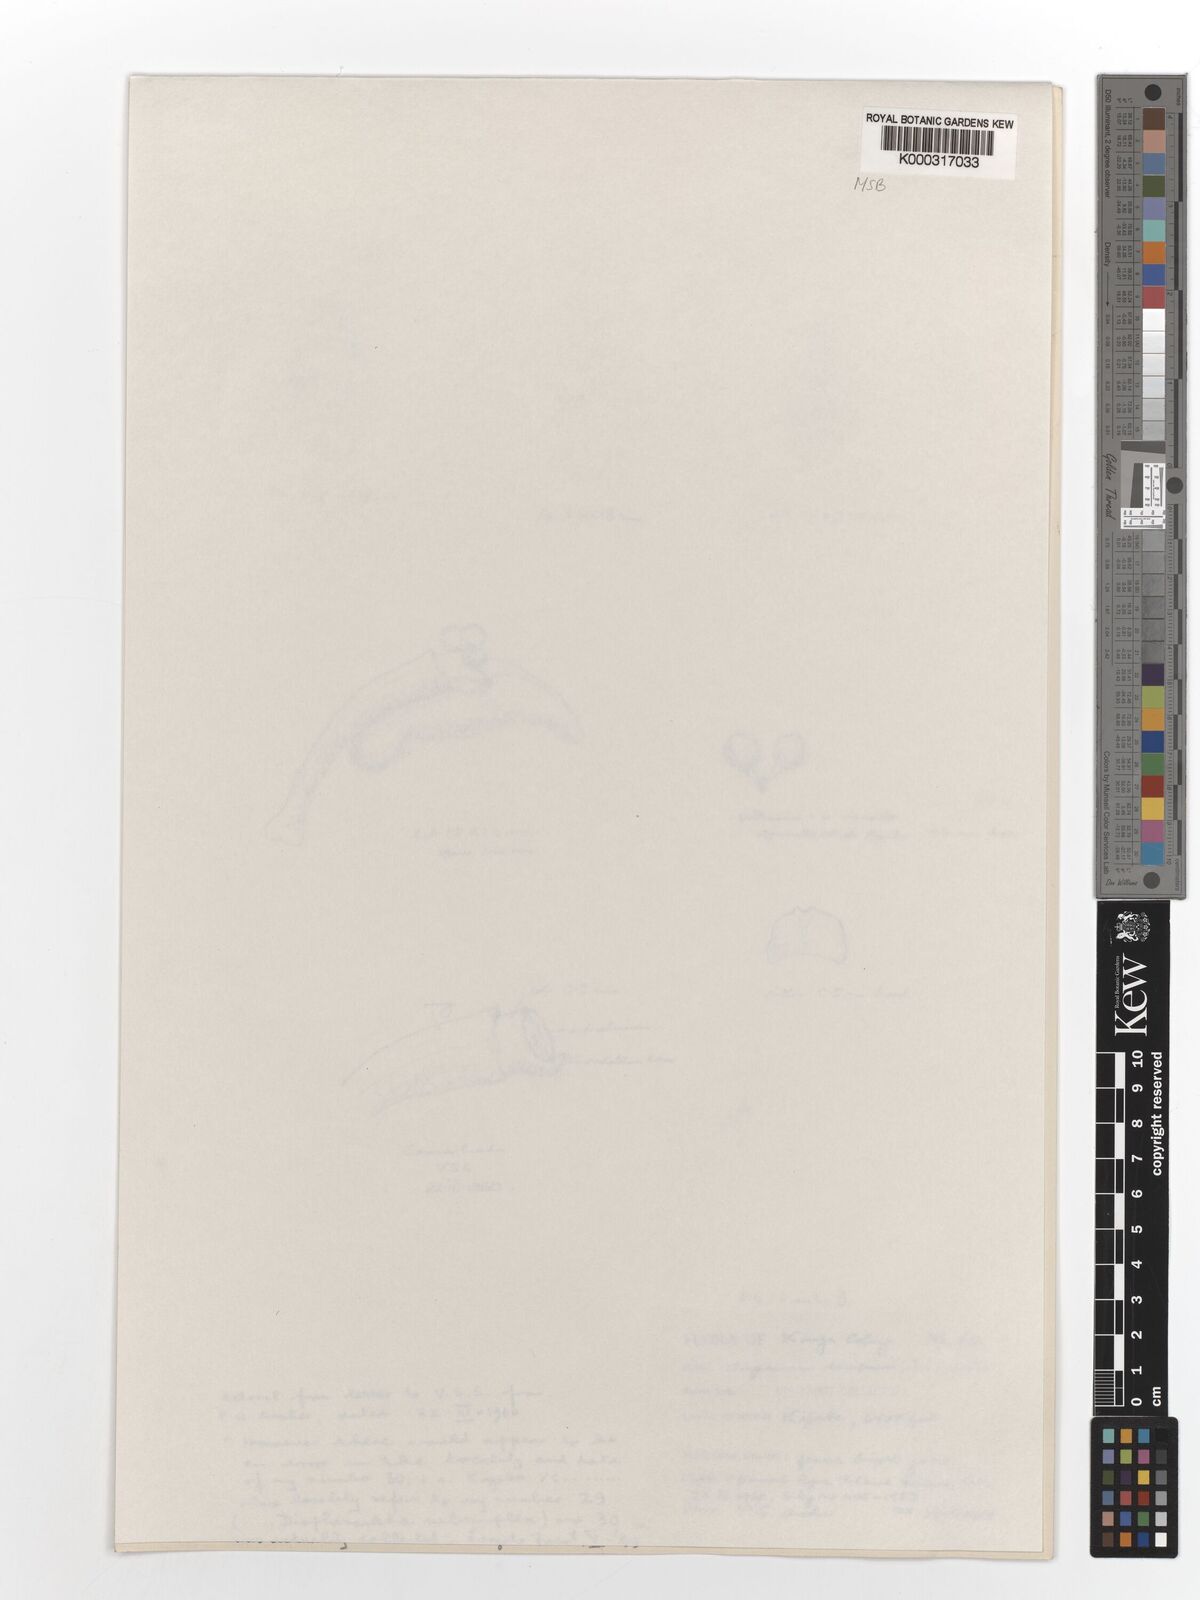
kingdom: Plantae
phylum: Tracheophyta
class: Liliopsida
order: Asparagales
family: Orchidaceae
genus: Angraecum
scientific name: Angraecum decipiens
